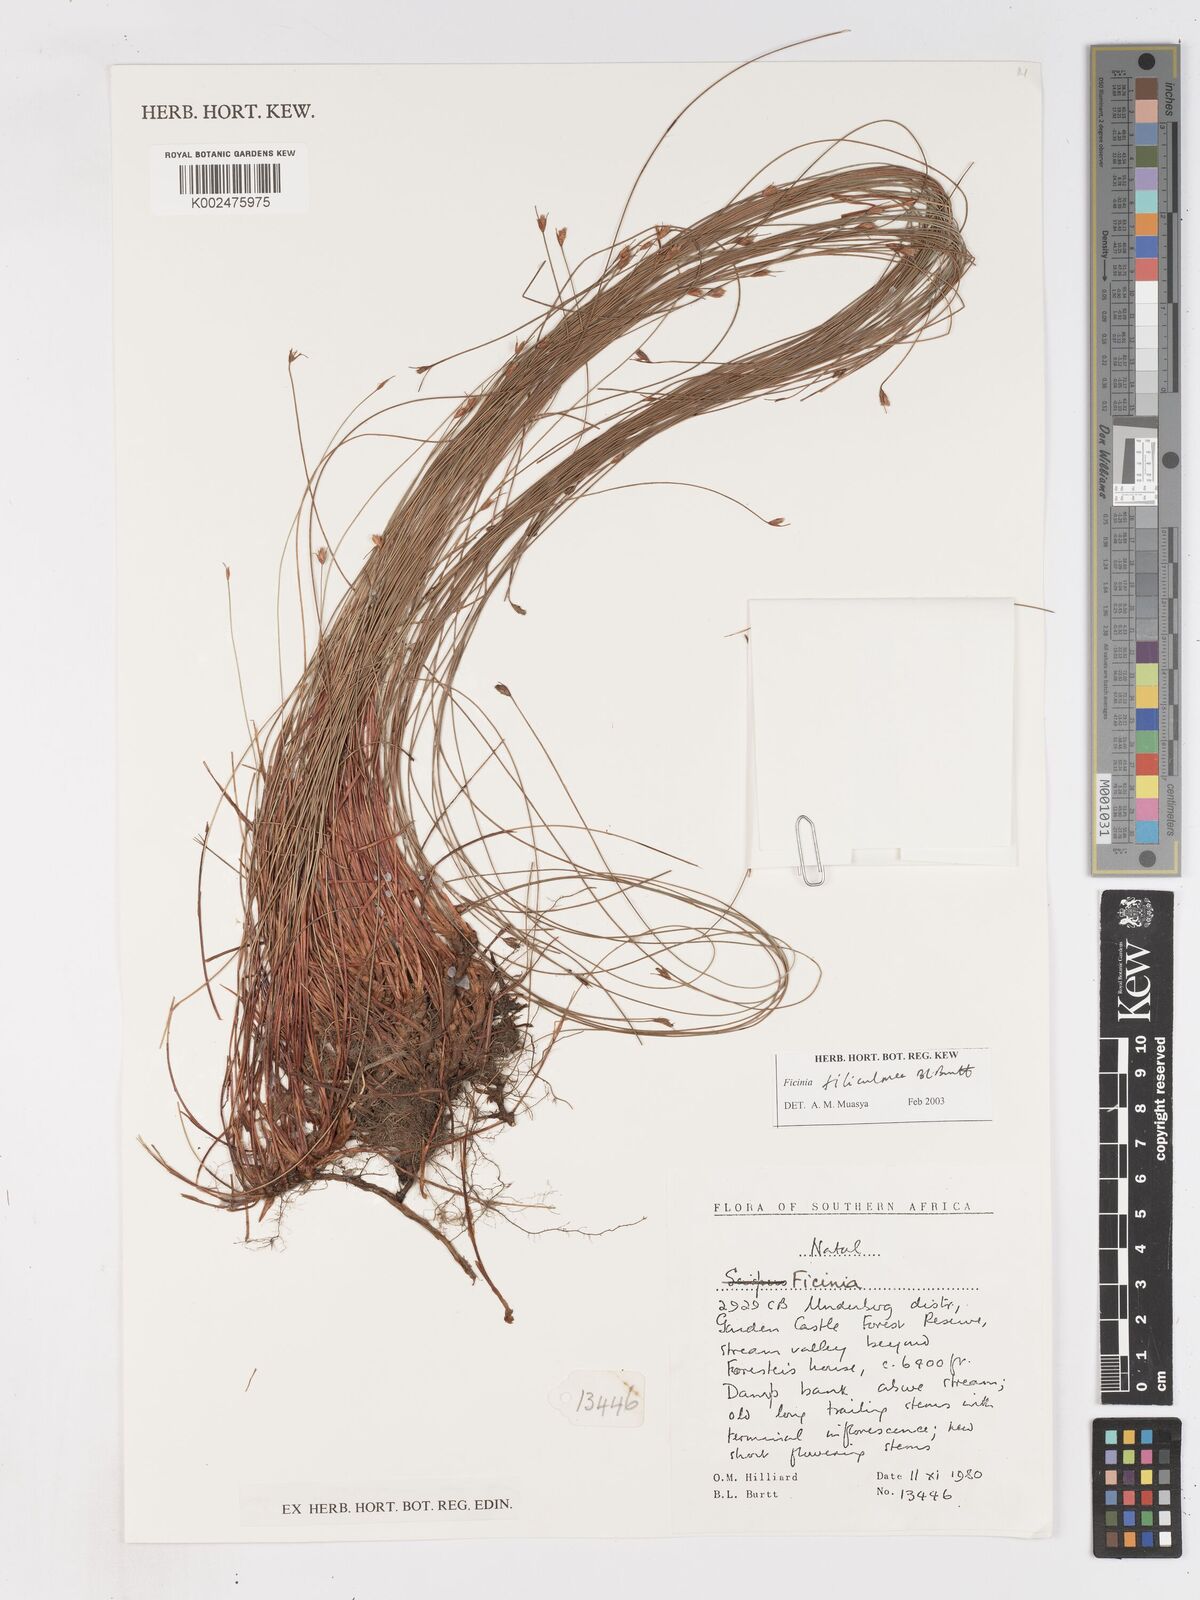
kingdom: Plantae
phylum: Tracheophyta
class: Liliopsida
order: Poales
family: Cyperaceae
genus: Ficinia
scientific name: Ficinia filiculmea
